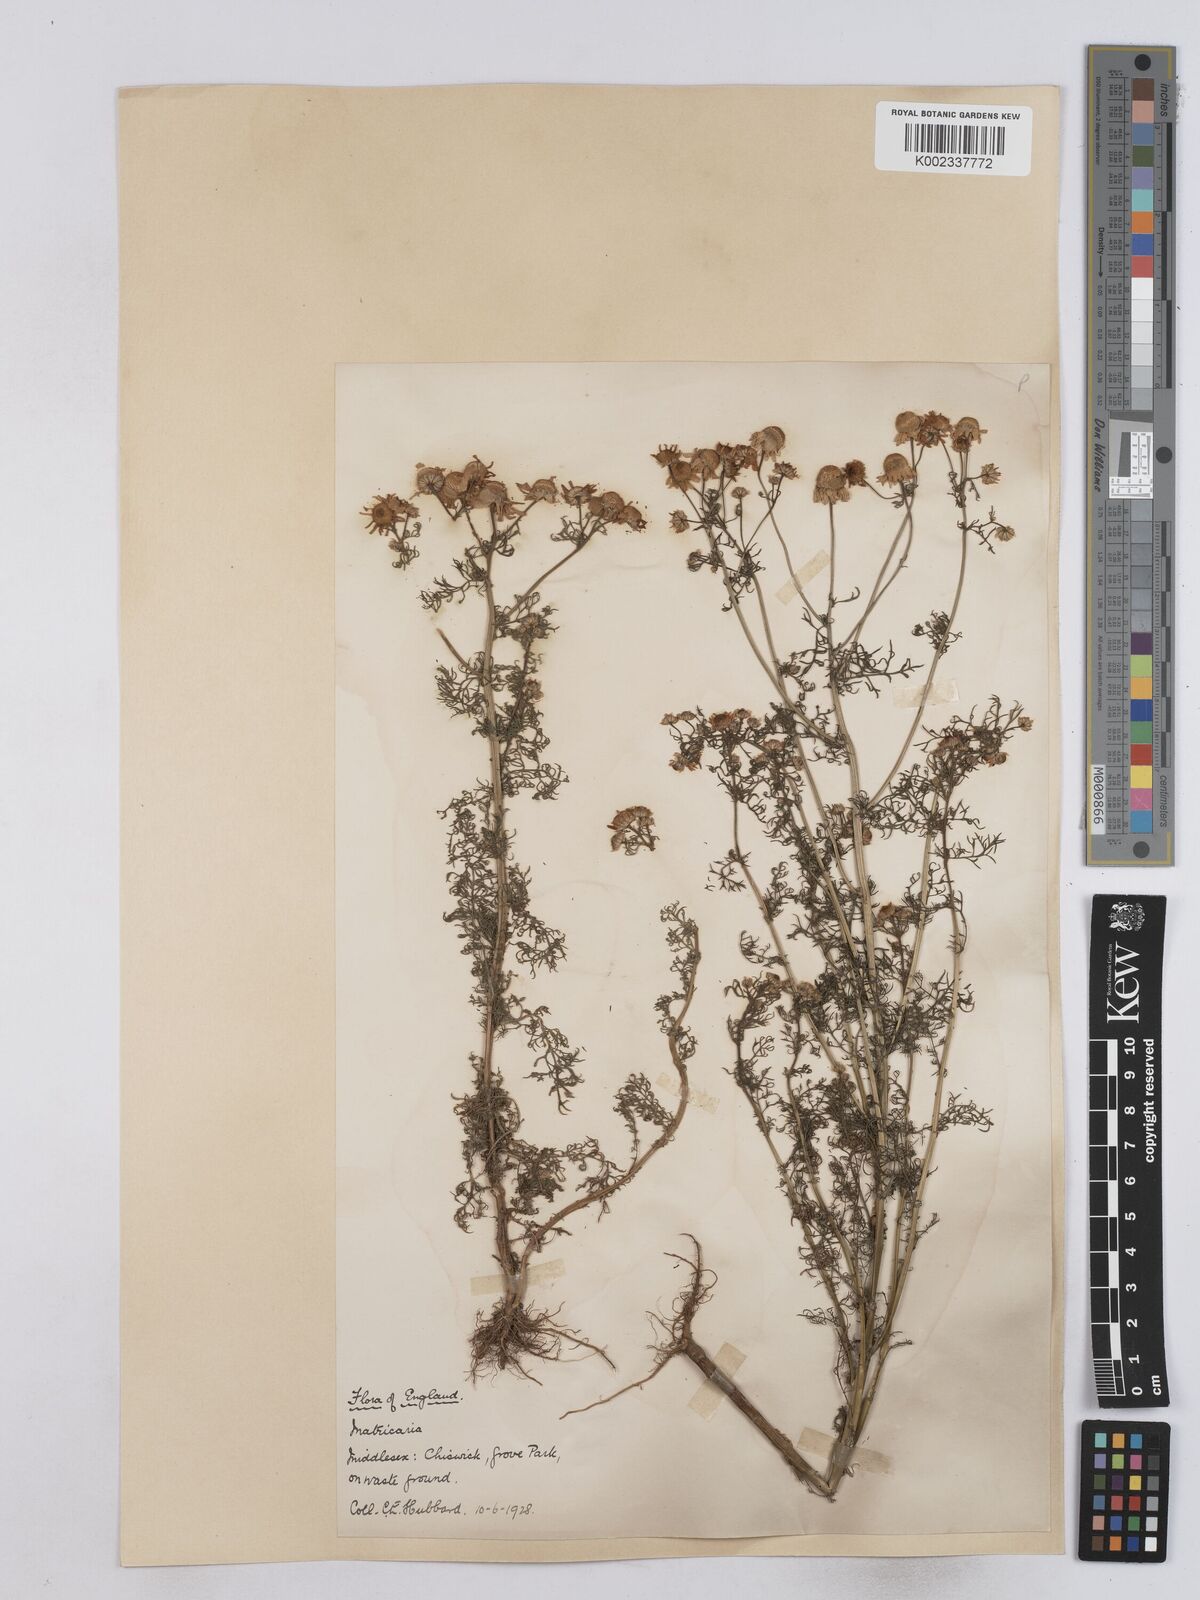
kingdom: Plantae
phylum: Tracheophyta
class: Magnoliopsida
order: Asterales
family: Asteraceae
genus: Matricaria
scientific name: Matricaria chamomilla
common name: Scented mayweed
